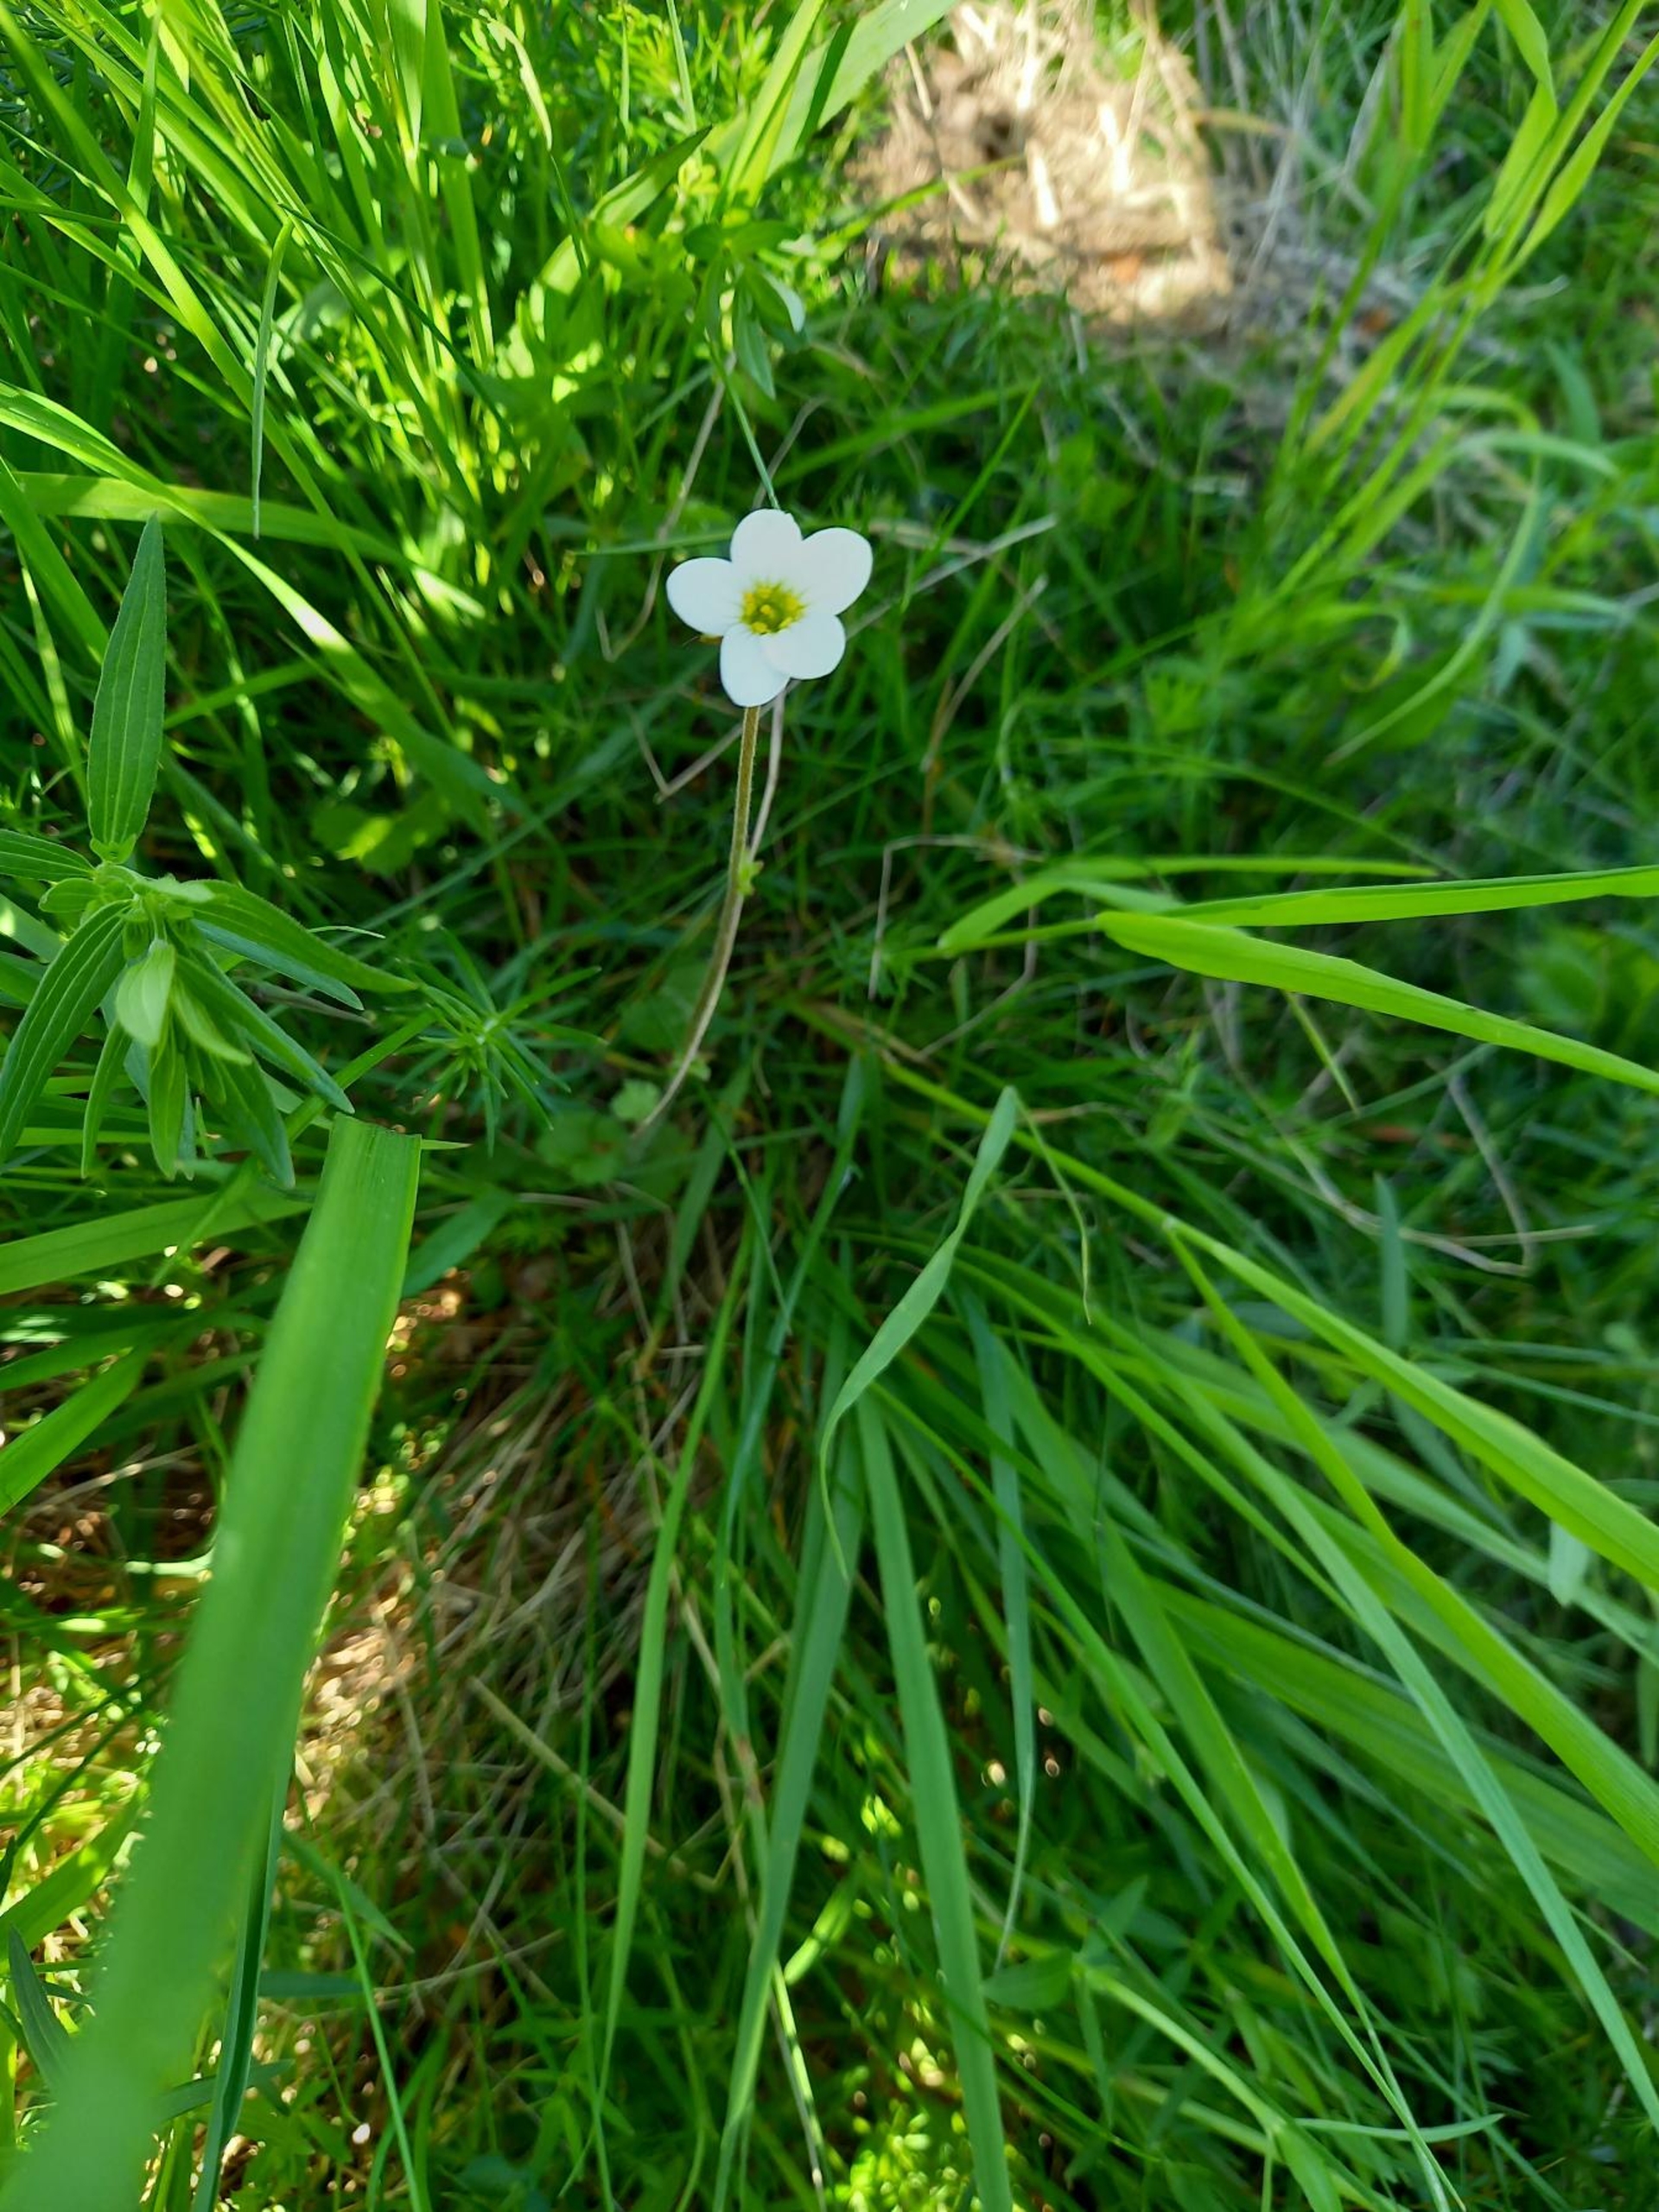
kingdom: Plantae
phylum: Tracheophyta
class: Magnoliopsida
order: Saxifragales
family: Saxifragaceae
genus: Saxifraga
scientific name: Saxifraga granulata
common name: Kornet stenbræk
